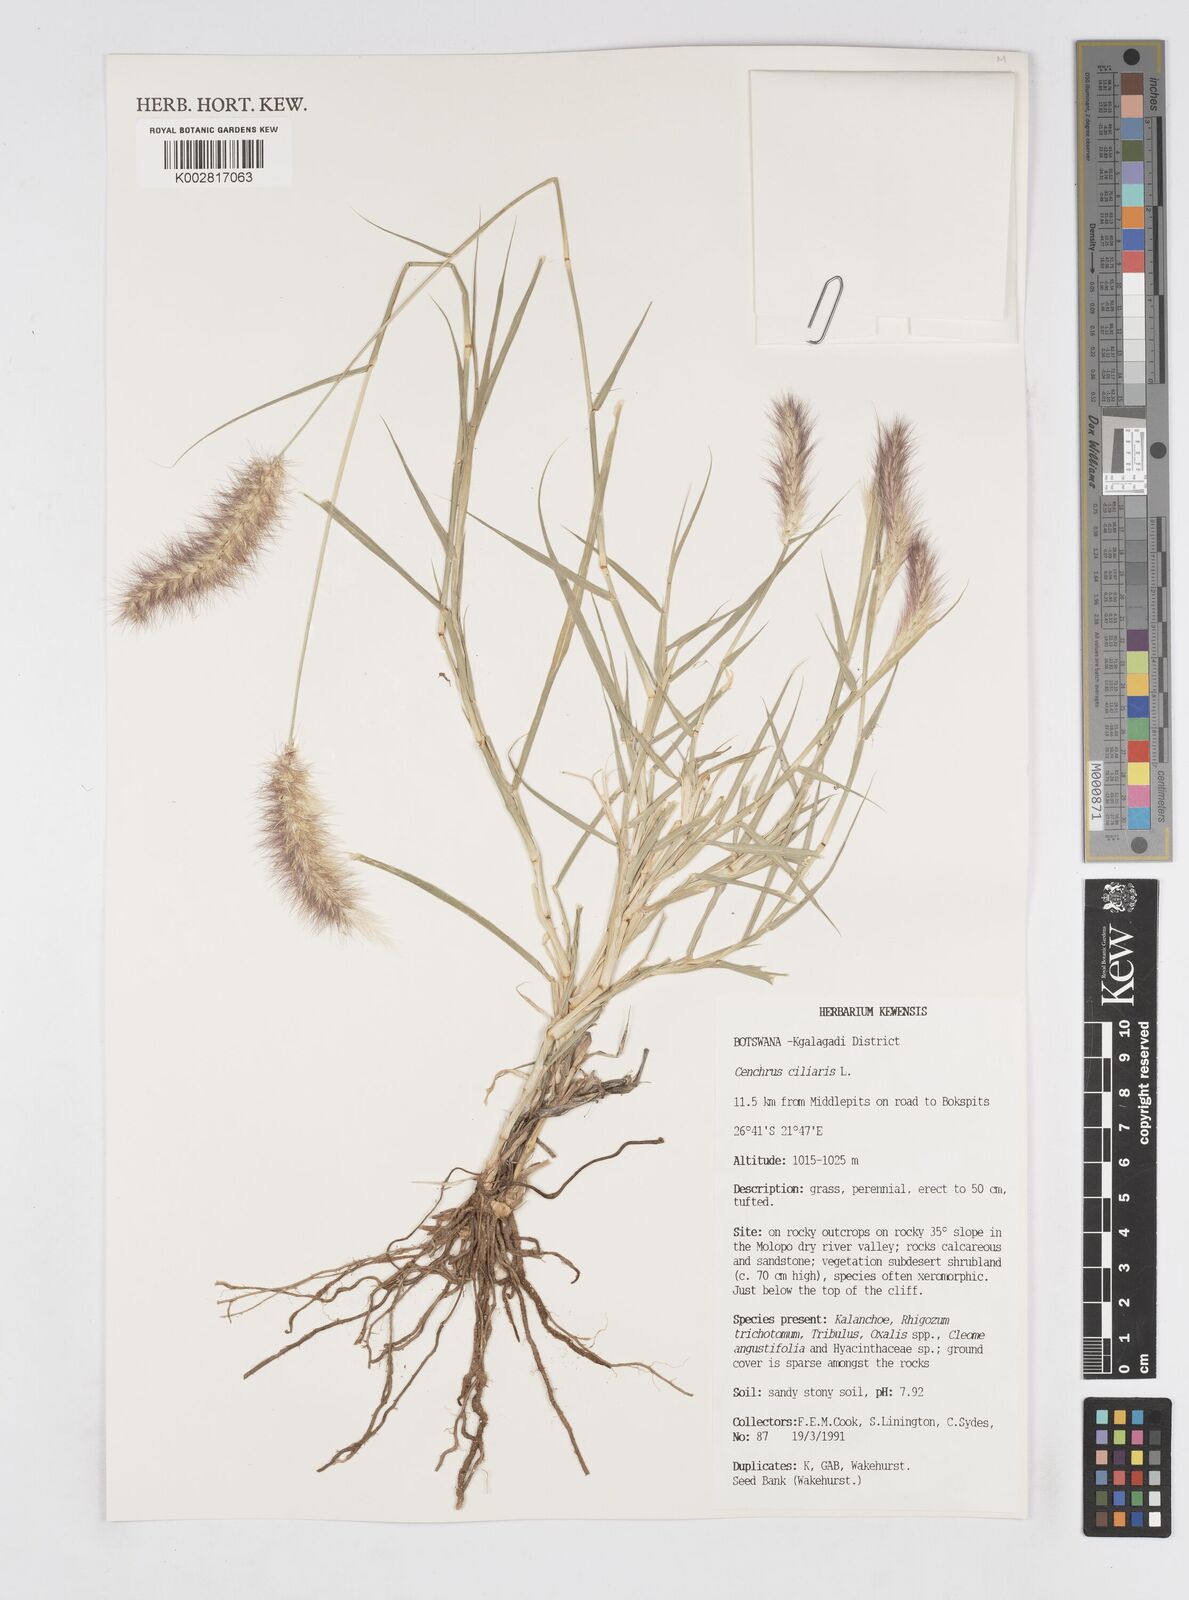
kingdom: Plantae
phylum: Tracheophyta
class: Liliopsida
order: Poales
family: Poaceae
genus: Cenchrus
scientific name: Cenchrus ciliaris
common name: Buffelgrass
